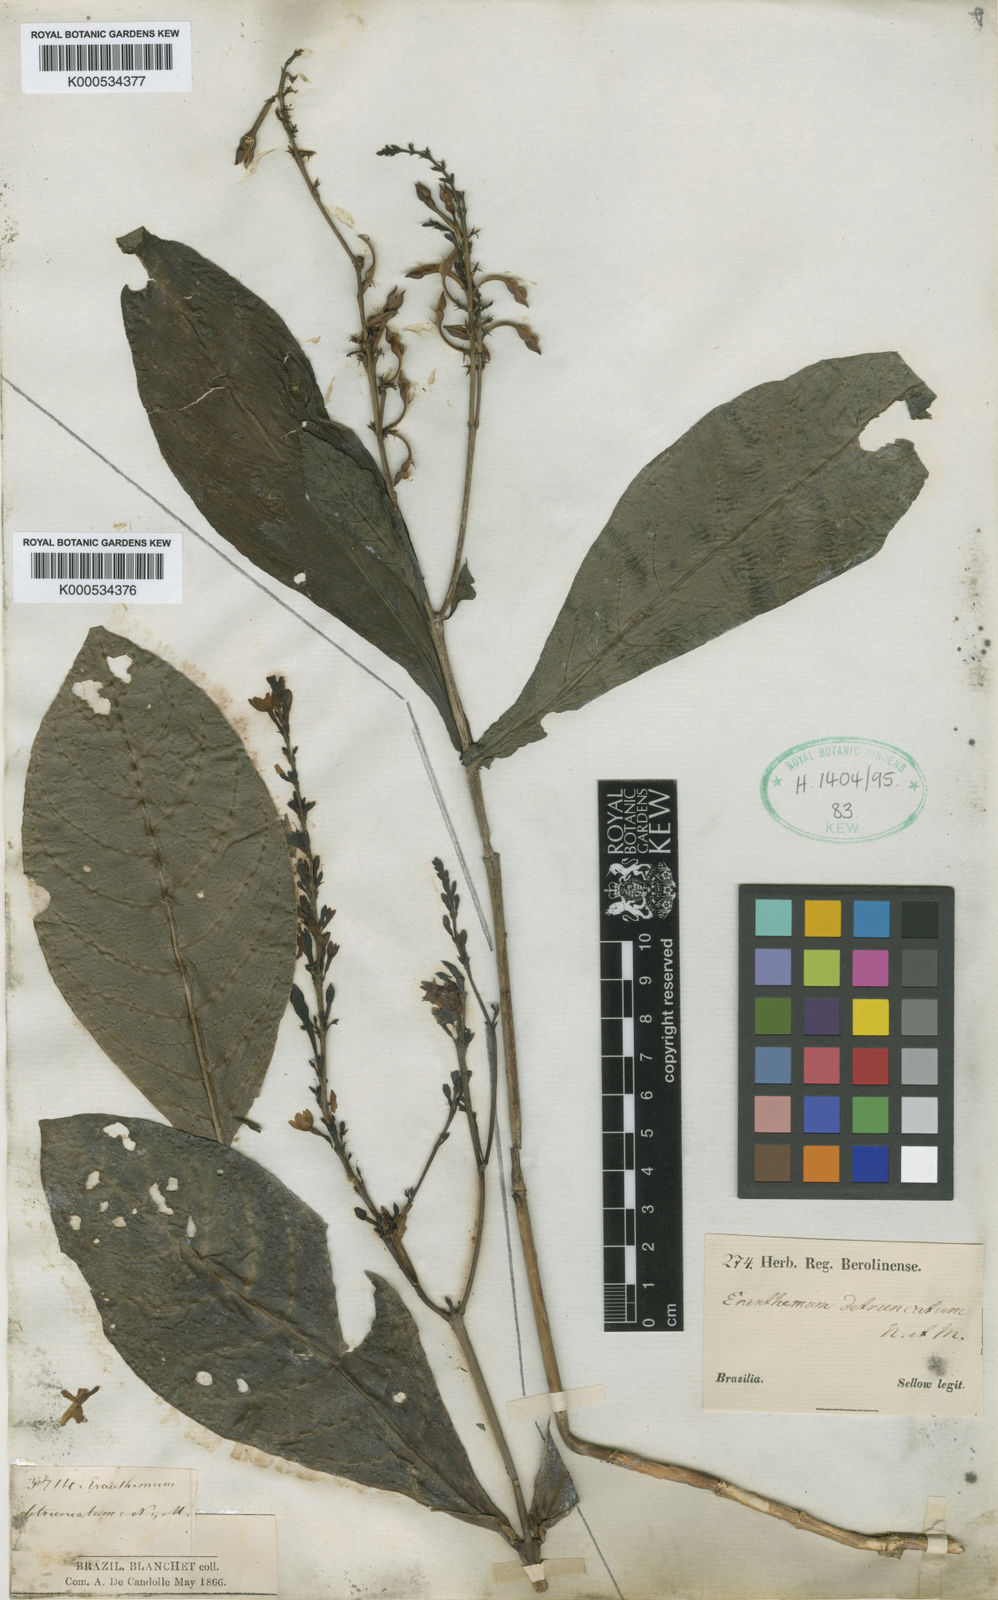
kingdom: Plantae
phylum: Tracheophyta
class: Magnoliopsida
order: Lamiales
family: Acanthaceae
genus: Pseuderanthemum
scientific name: Pseuderanthemum detruncatum
